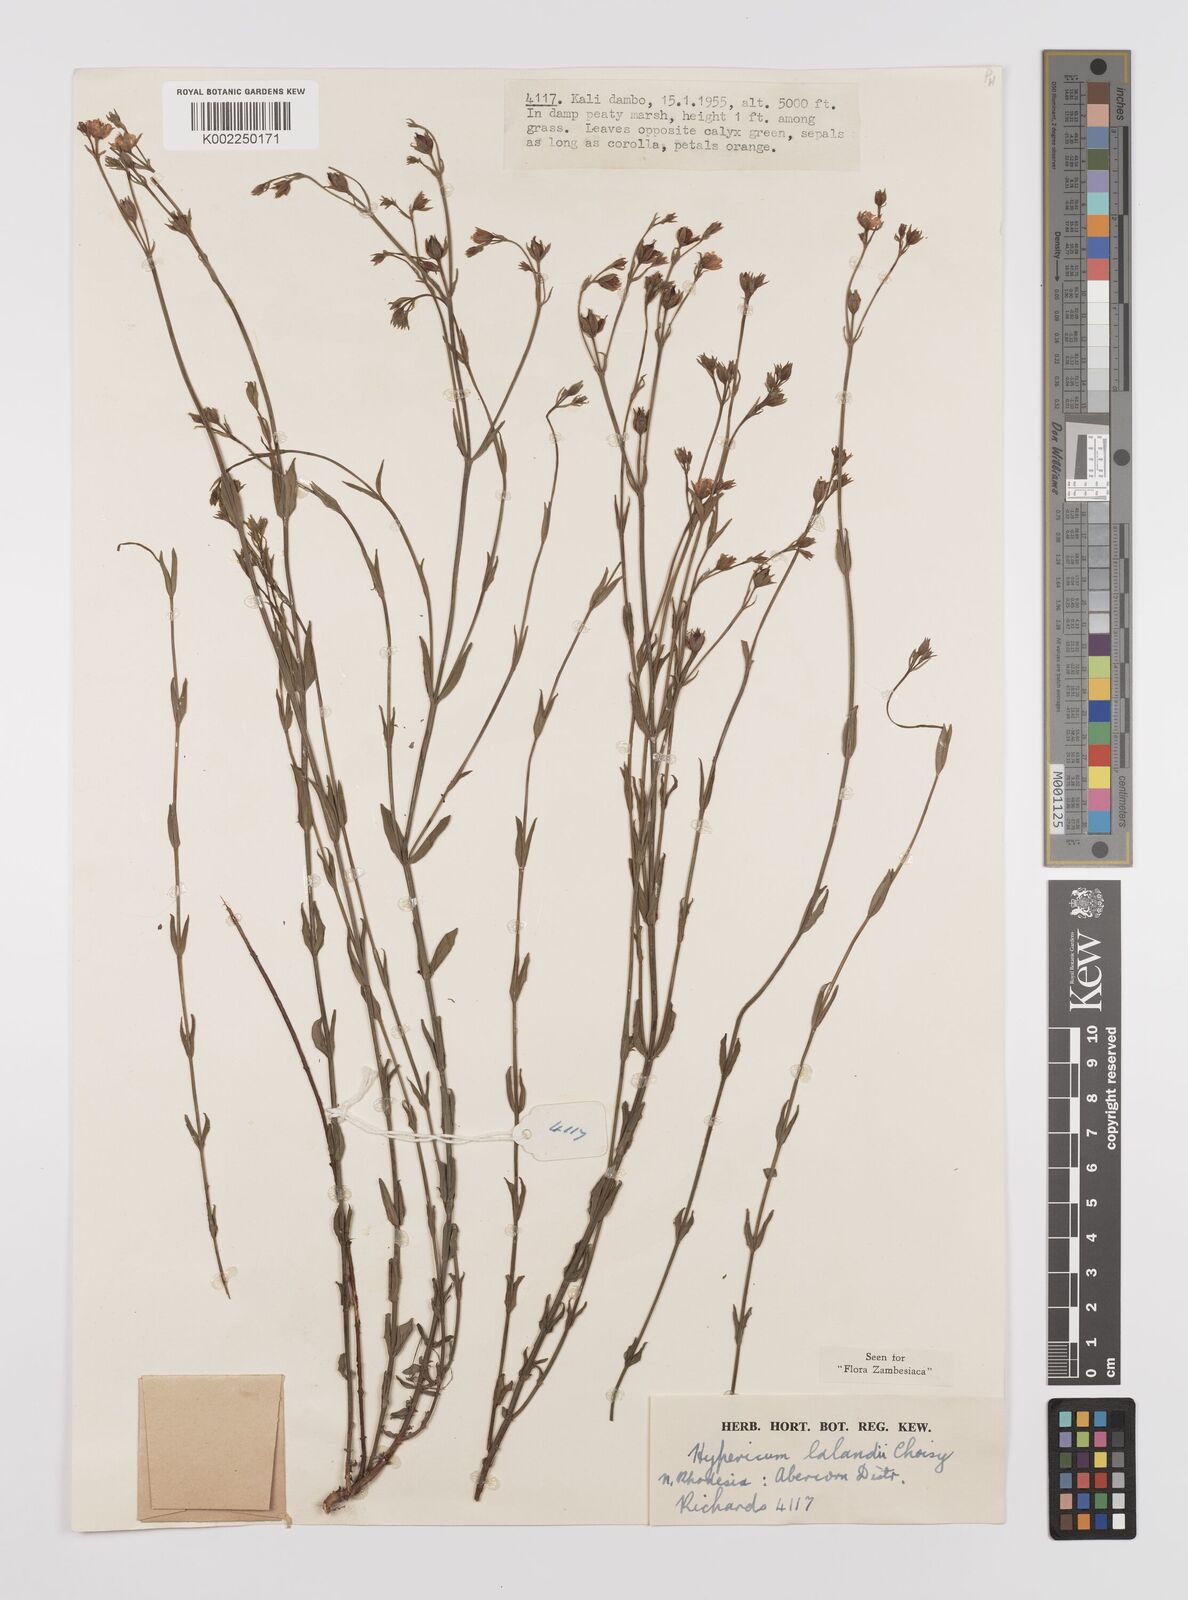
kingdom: Plantae
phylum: Tracheophyta
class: Magnoliopsida
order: Malpighiales
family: Hypericaceae
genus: Hypericum
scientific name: Hypericum lalandii
